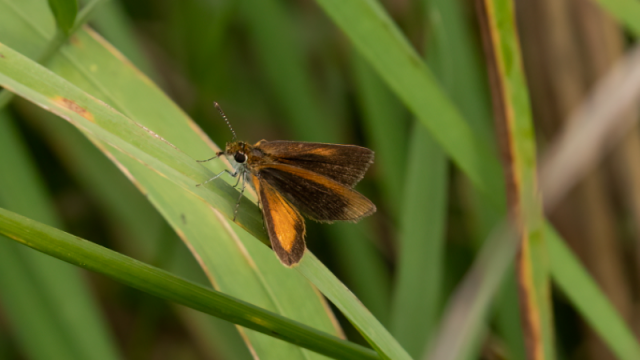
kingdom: Animalia
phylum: Arthropoda
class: Insecta
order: Lepidoptera
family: Hesperiidae
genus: Ancyloxypha
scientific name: Ancyloxypha numitor
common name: Least Skipper
